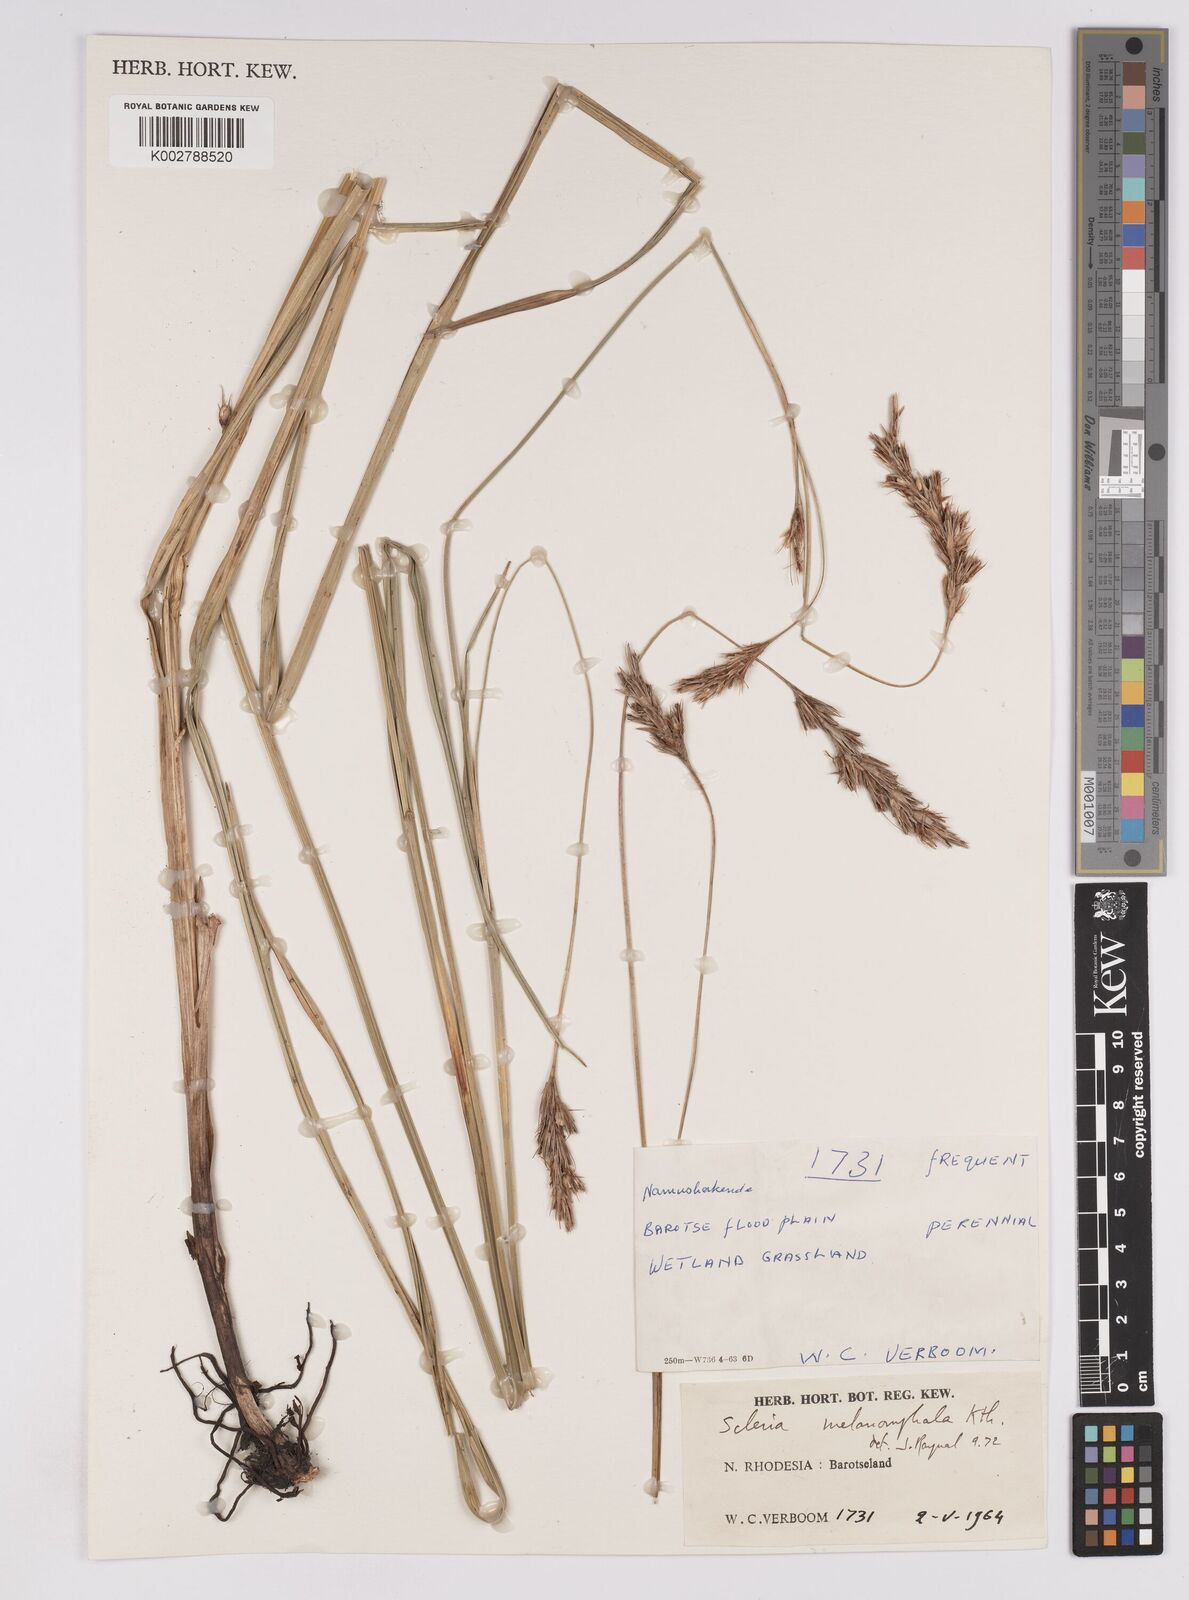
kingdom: Plantae
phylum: Tracheophyta
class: Liliopsida
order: Poales
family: Cyperaceae
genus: Scleria
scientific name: Scleria melanomphala
